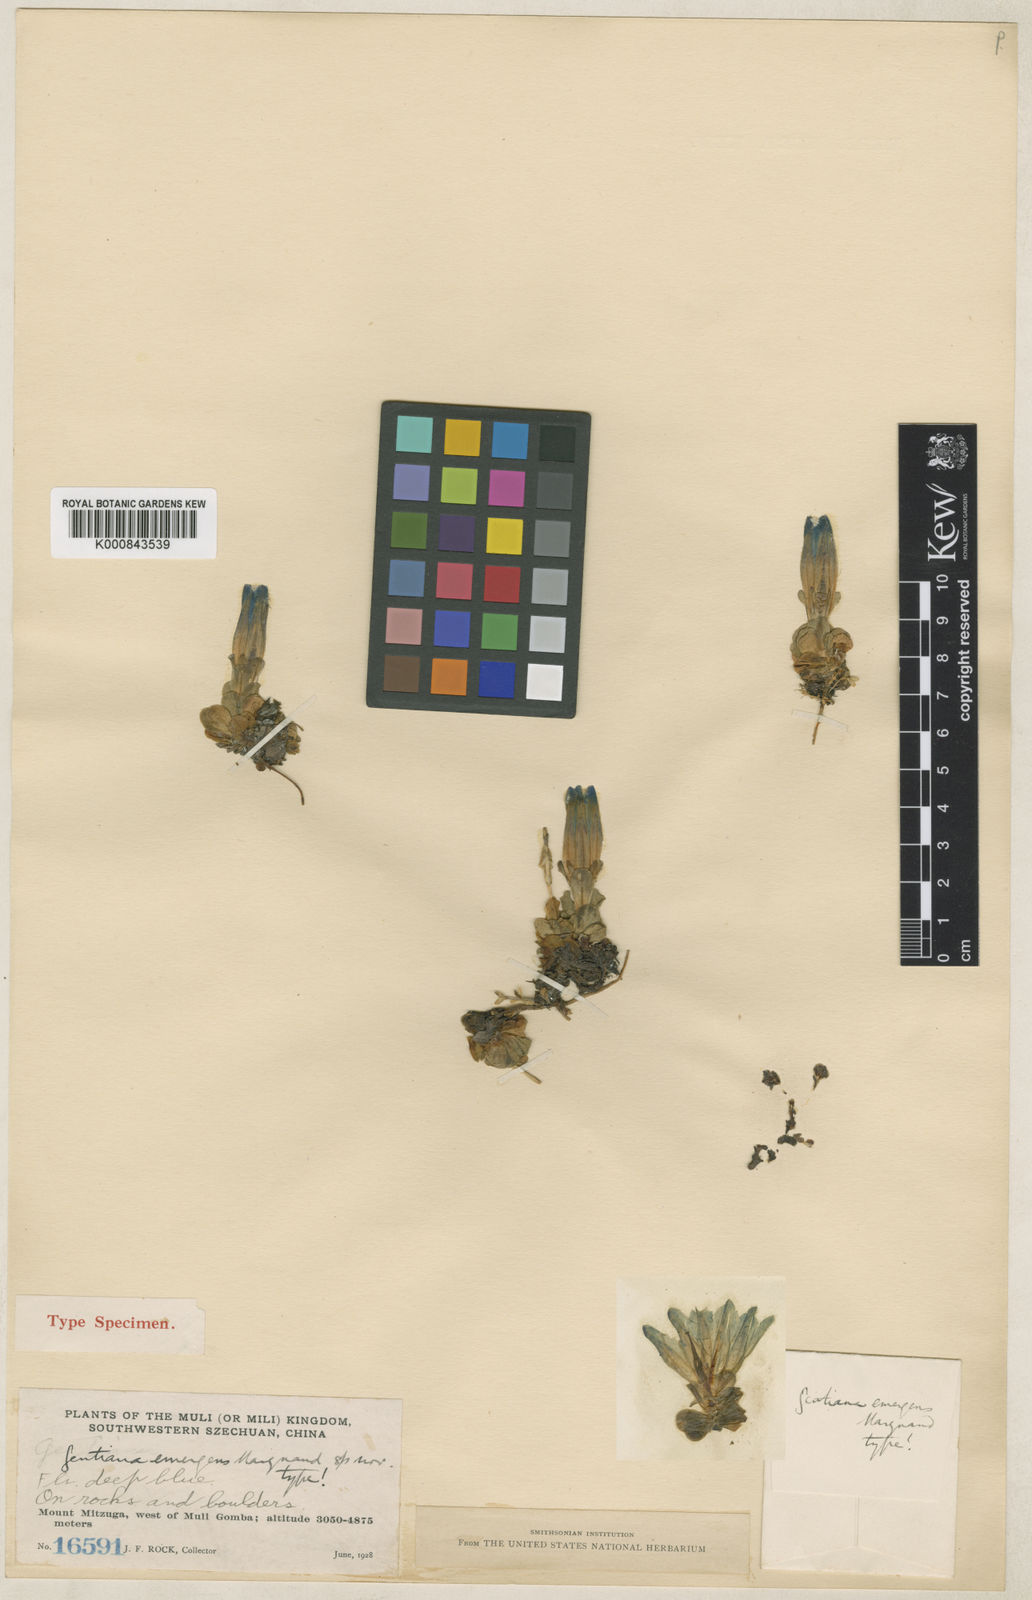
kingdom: Plantae
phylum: Tracheophyta
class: Magnoliopsida
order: Gentianales
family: Gentianaceae
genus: Gentiana
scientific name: Gentiana wardii
